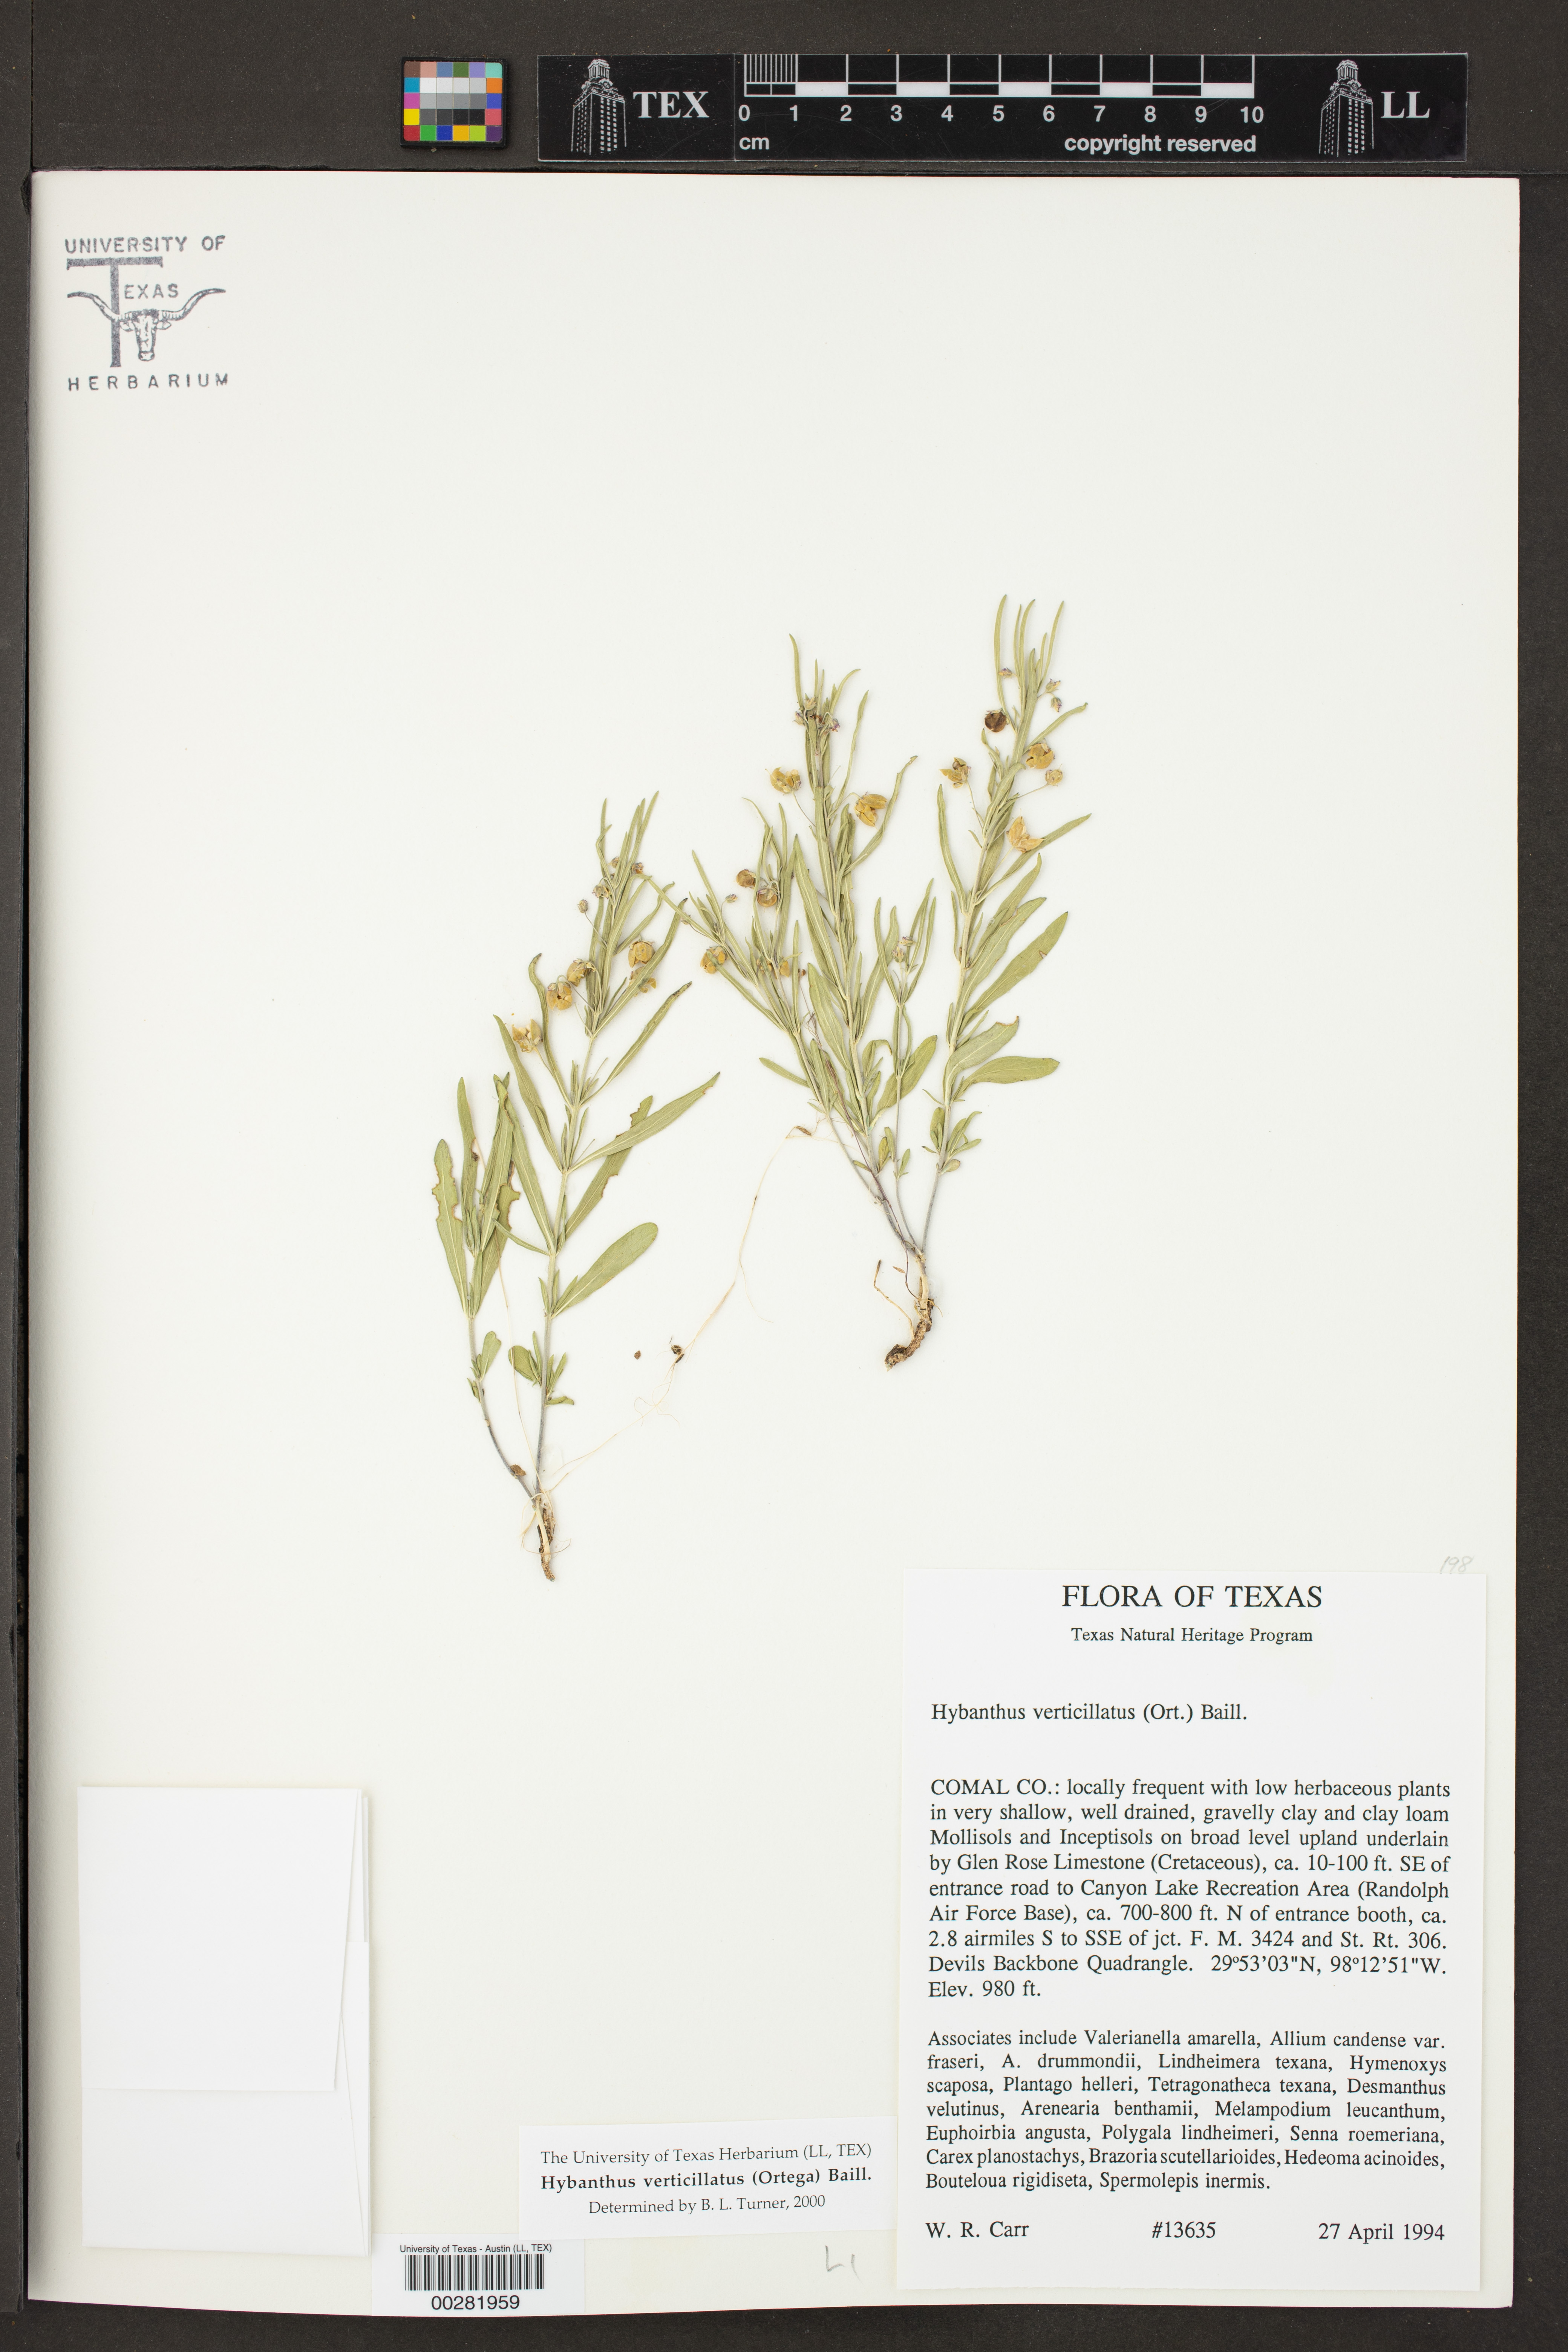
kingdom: Plantae
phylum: Tracheophyta
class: Magnoliopsida
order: Malpighiales
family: Violaceae
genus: Pombalia
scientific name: Pombalia verticillata
